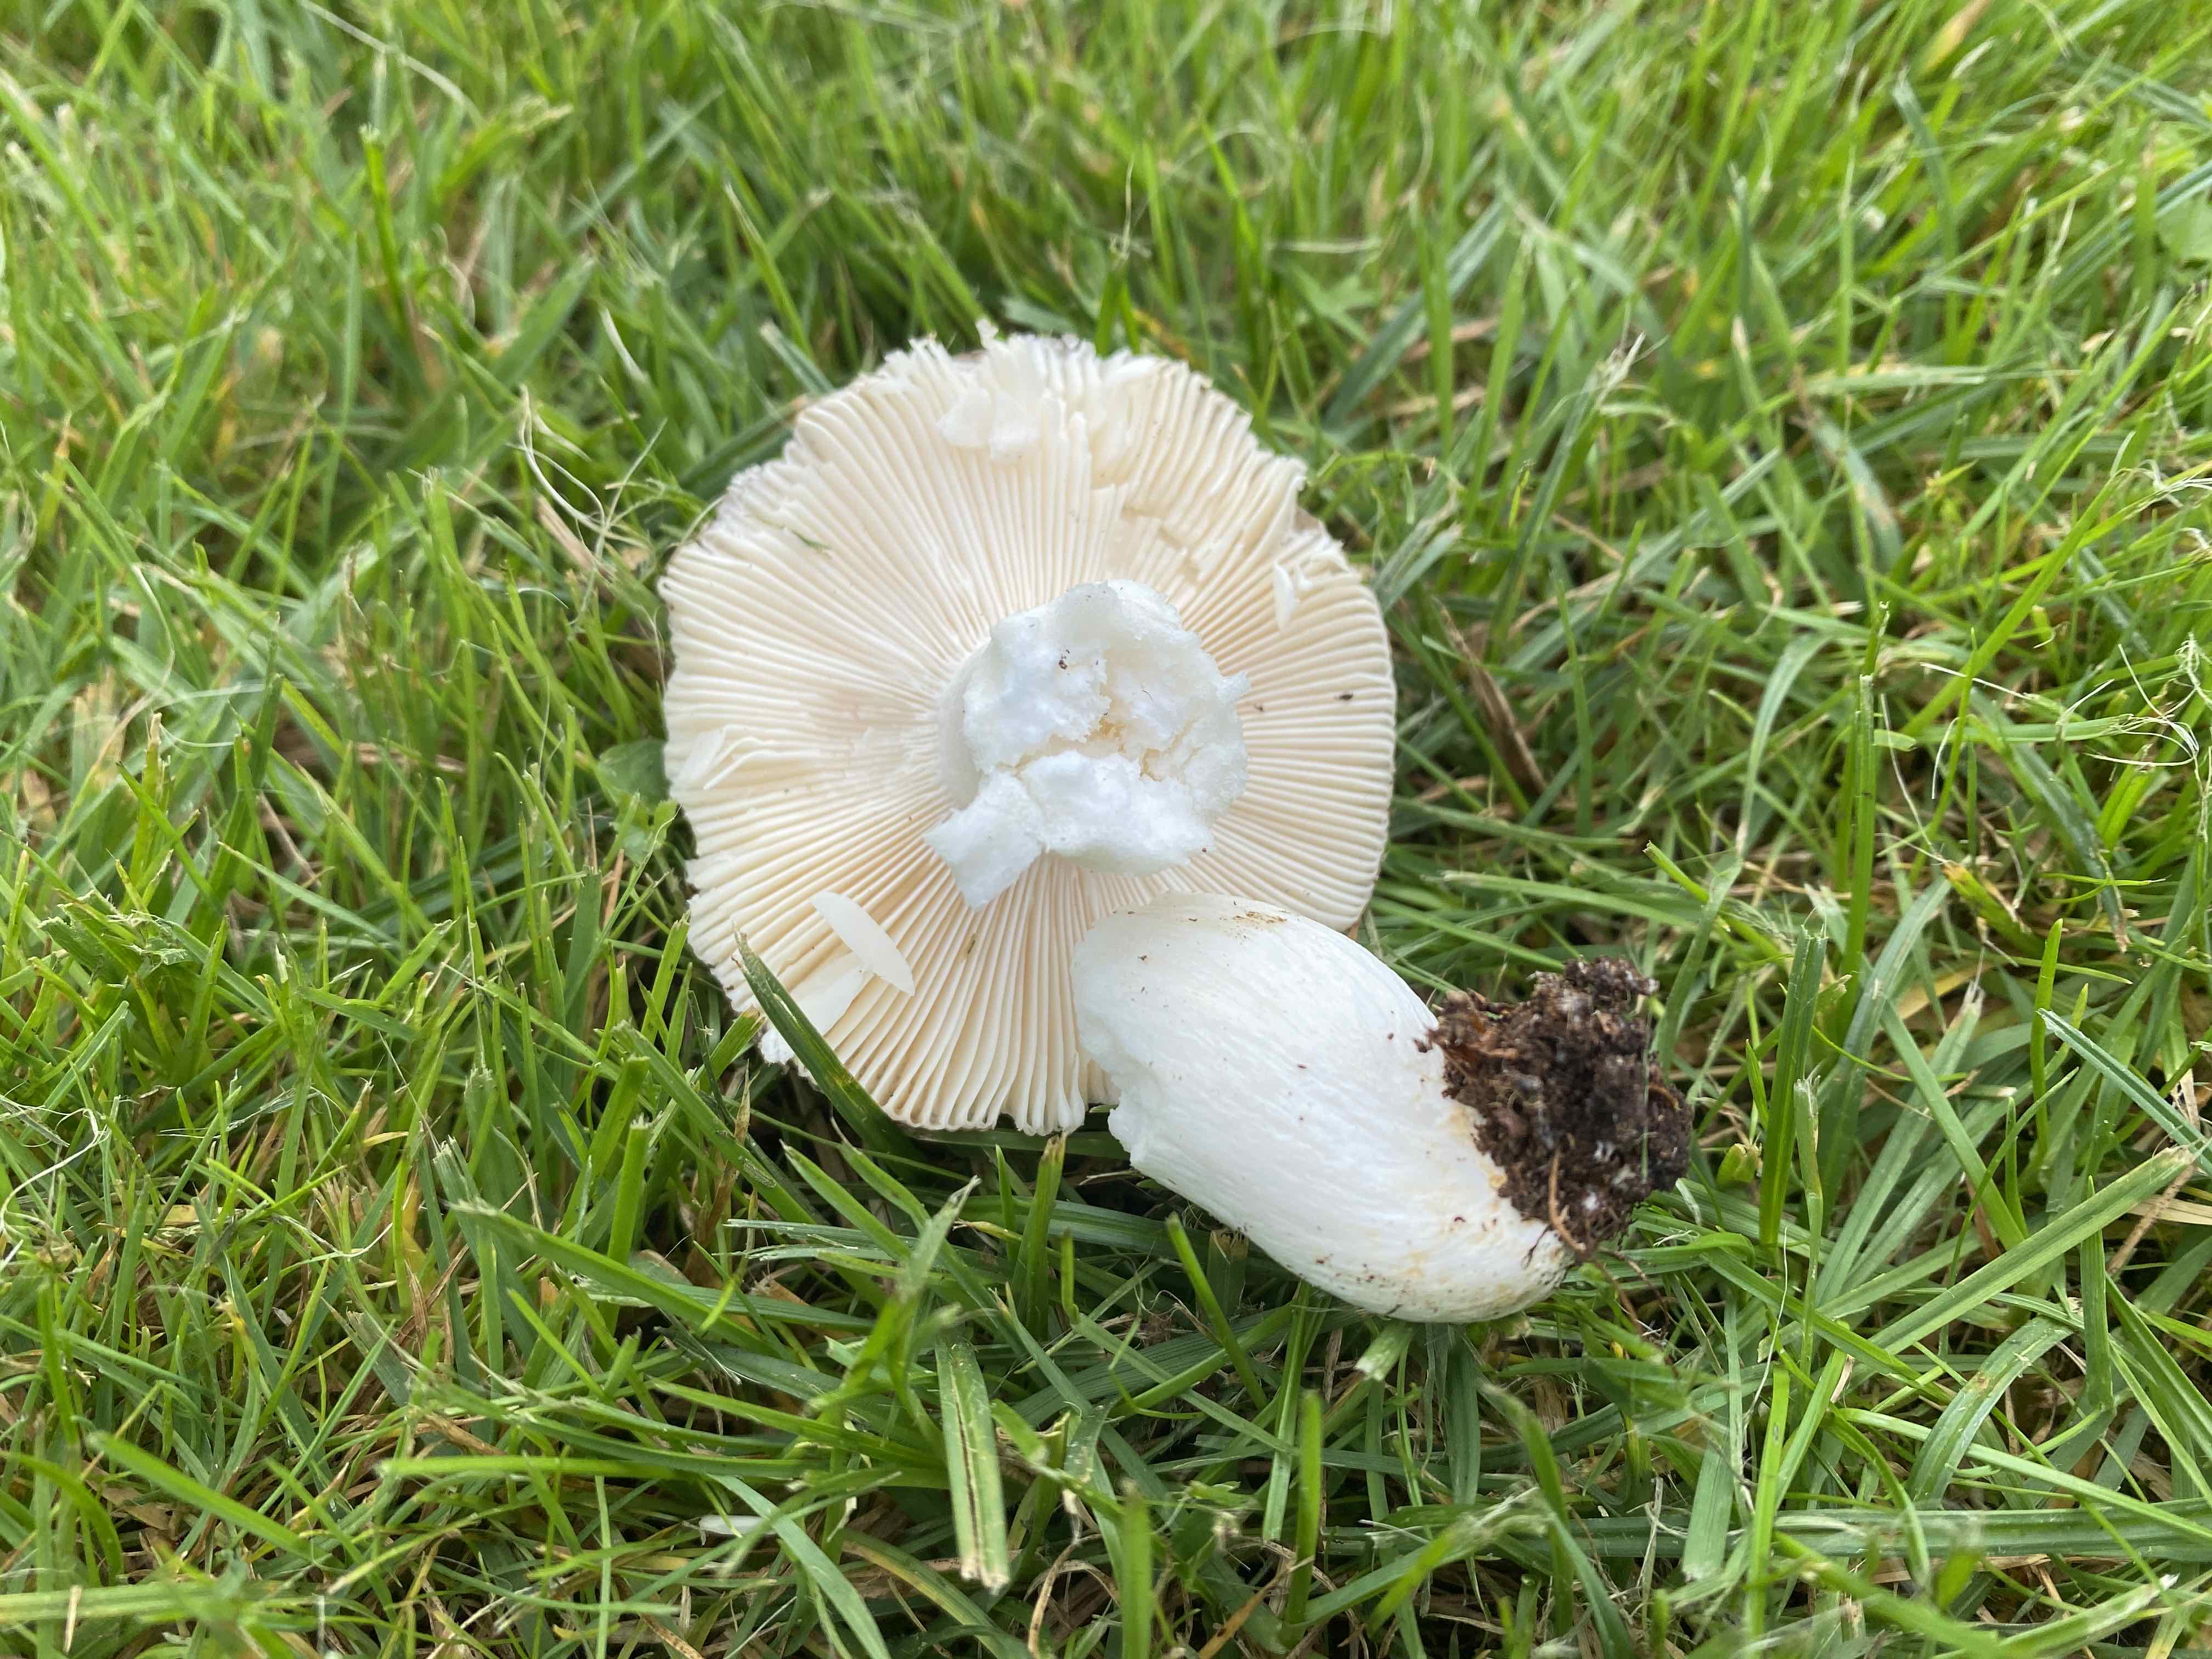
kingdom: Fungi
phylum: Basidiomycota
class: Agaricomycetes
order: Russulales
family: Russulaceae
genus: Russula
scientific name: Russula
